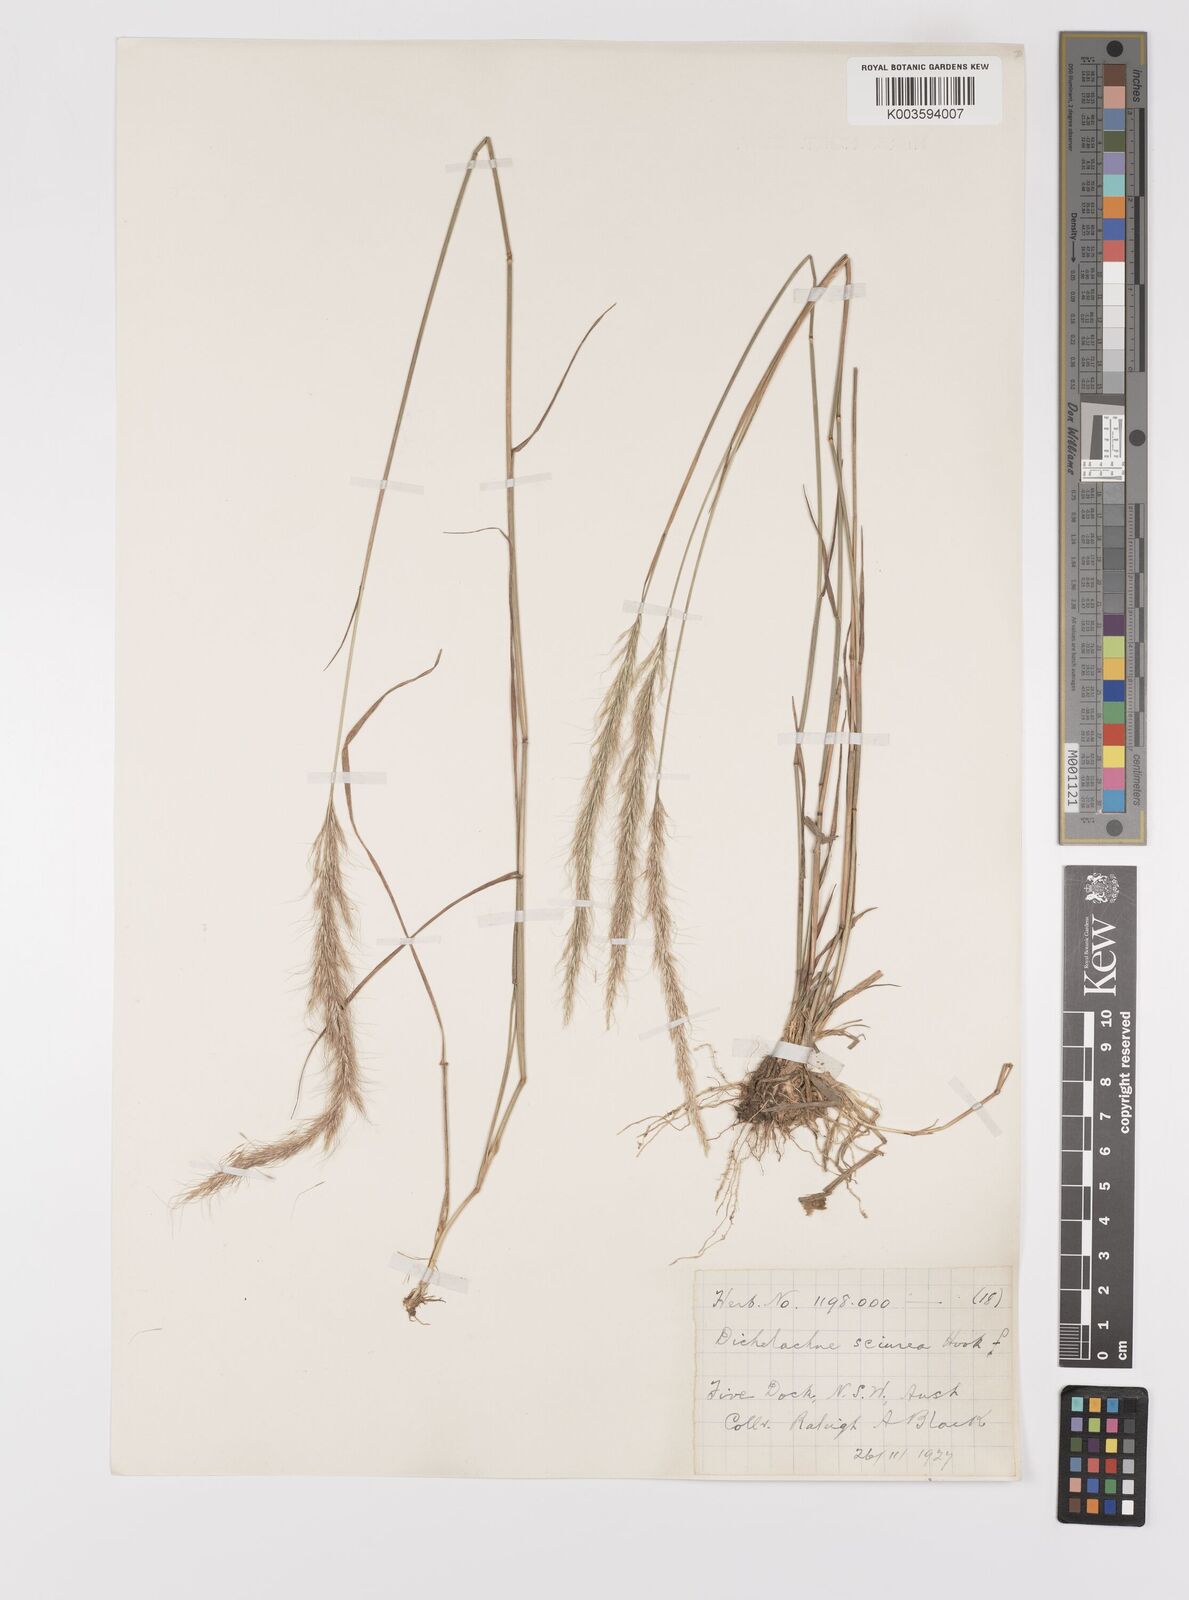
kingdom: Plantae
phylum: Tracheophyta
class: Liliopsida
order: Poales
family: Poaceae
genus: Dichelachne
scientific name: Dichelachne micrantha
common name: Plumegrass
